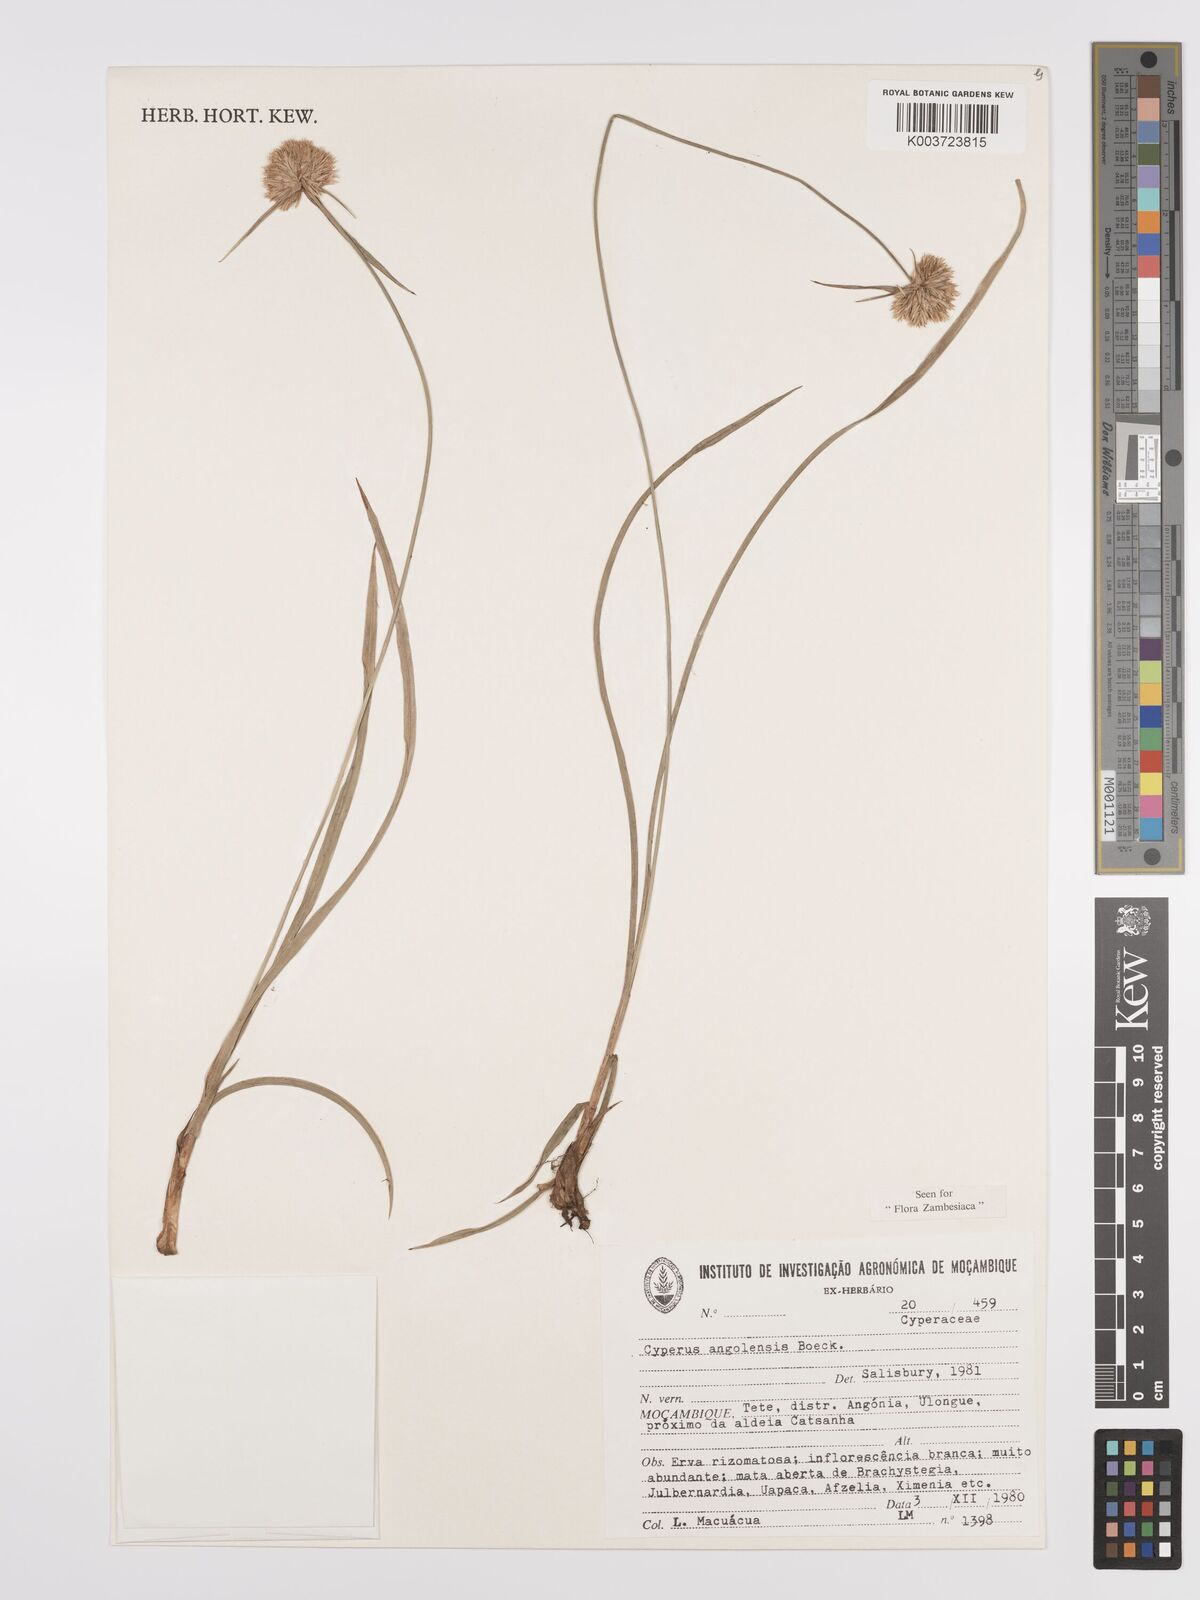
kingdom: Plantae
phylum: Tracheophyta
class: Liliopsida
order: Poales
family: Cyperaceae
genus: Cyperus
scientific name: Cyperus angolensis
